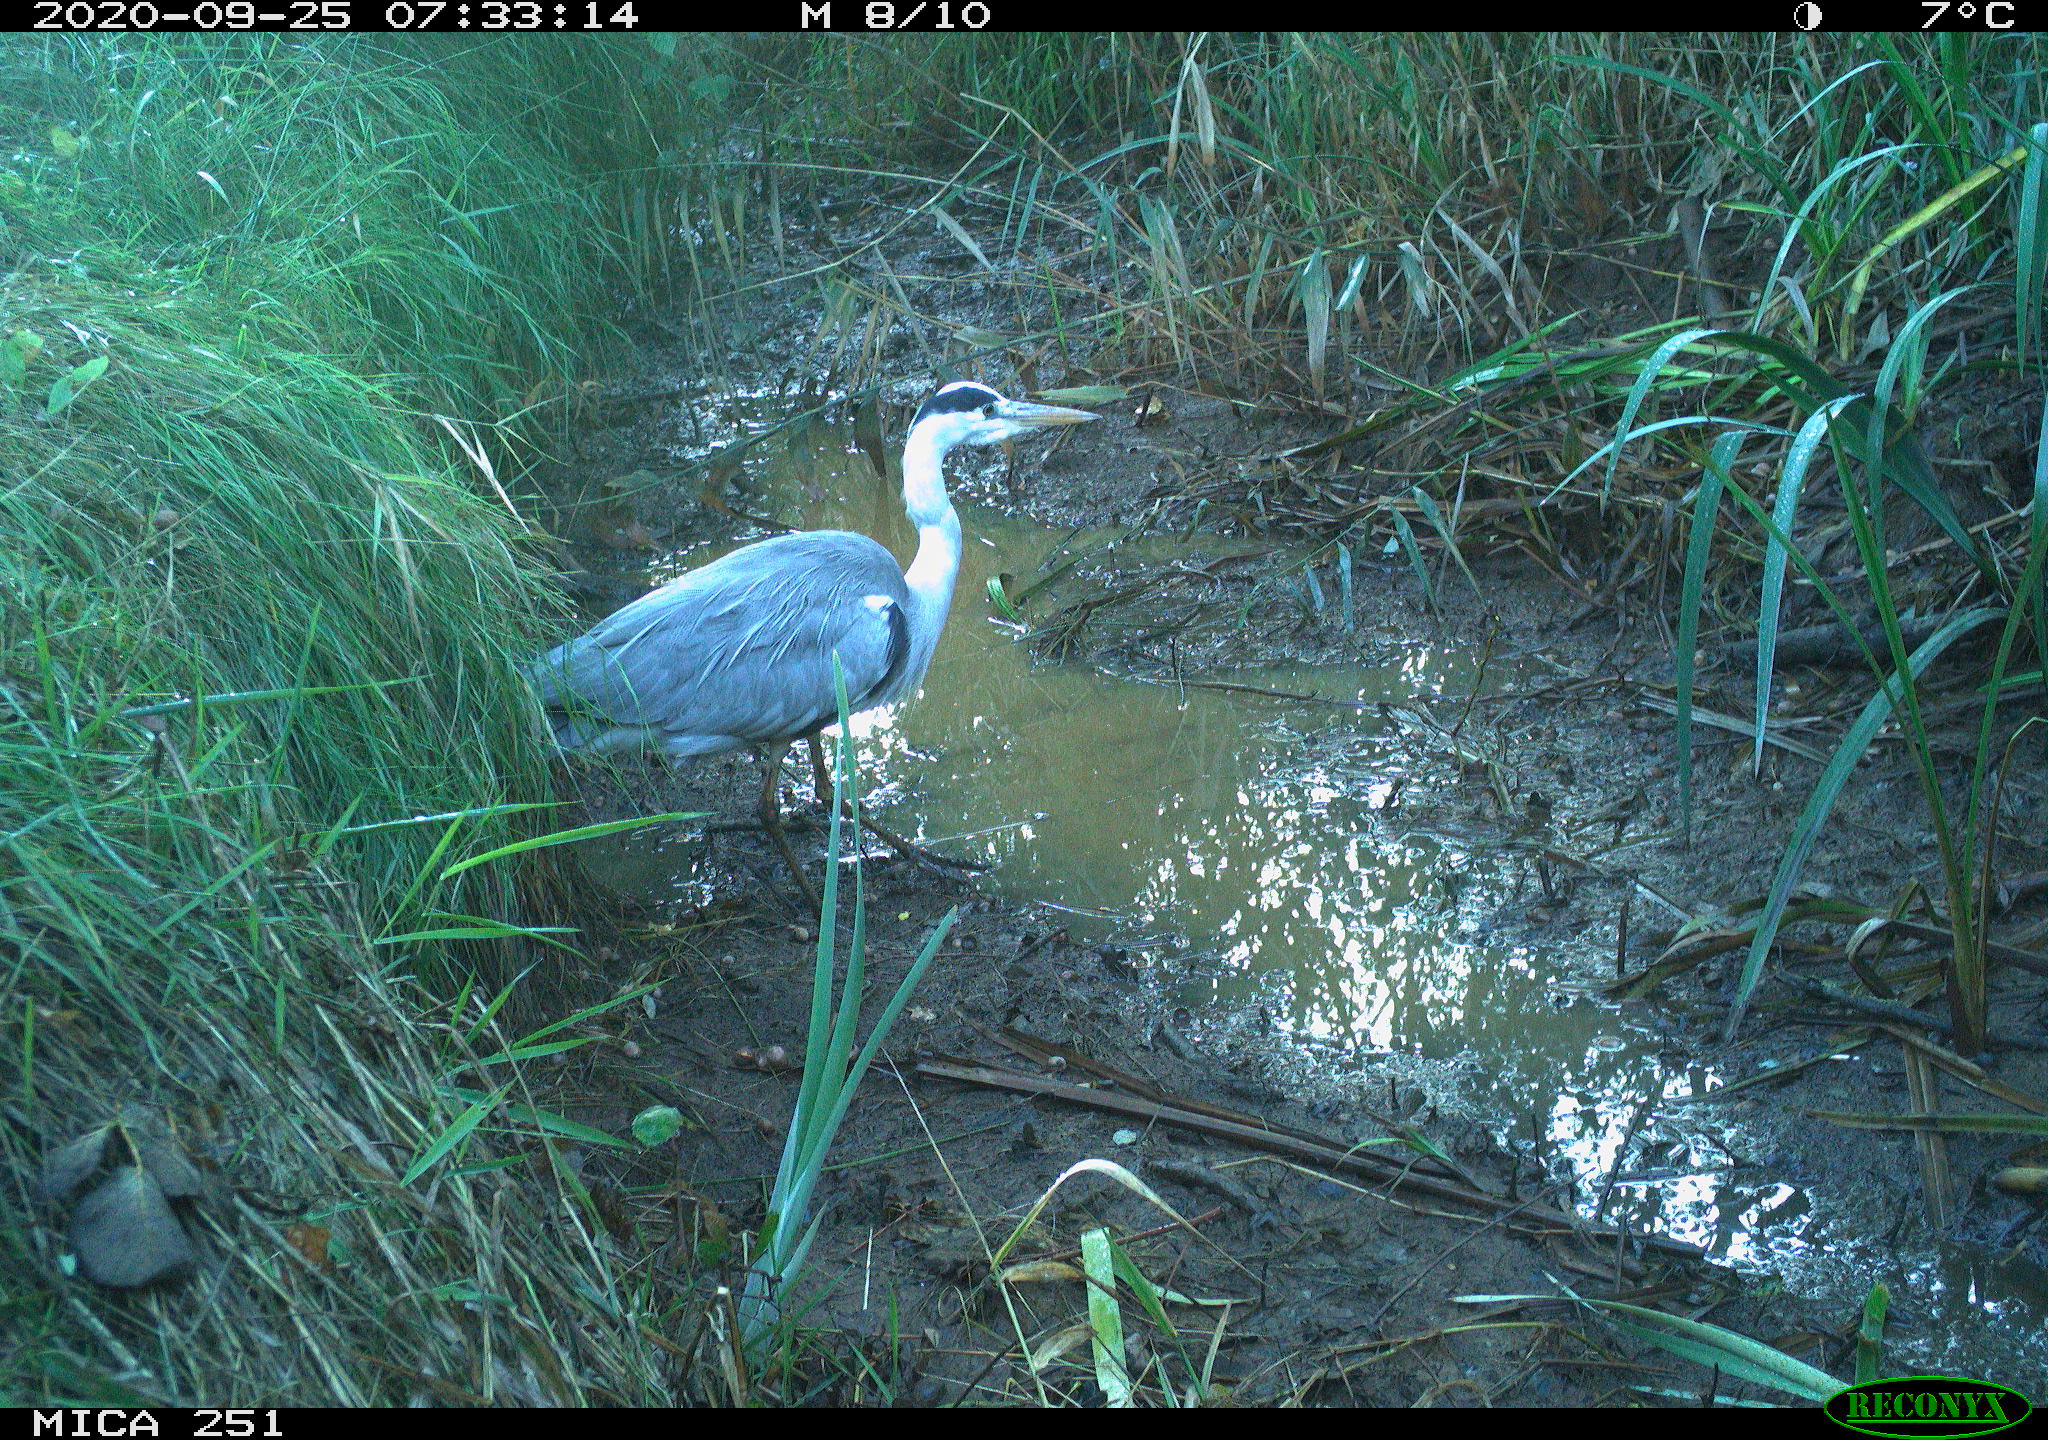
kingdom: Animalia
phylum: Chordata
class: Aves
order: Pelecaniformes
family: Ardeidae
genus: Ardea
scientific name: Ardea cinerea
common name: Grey heron
